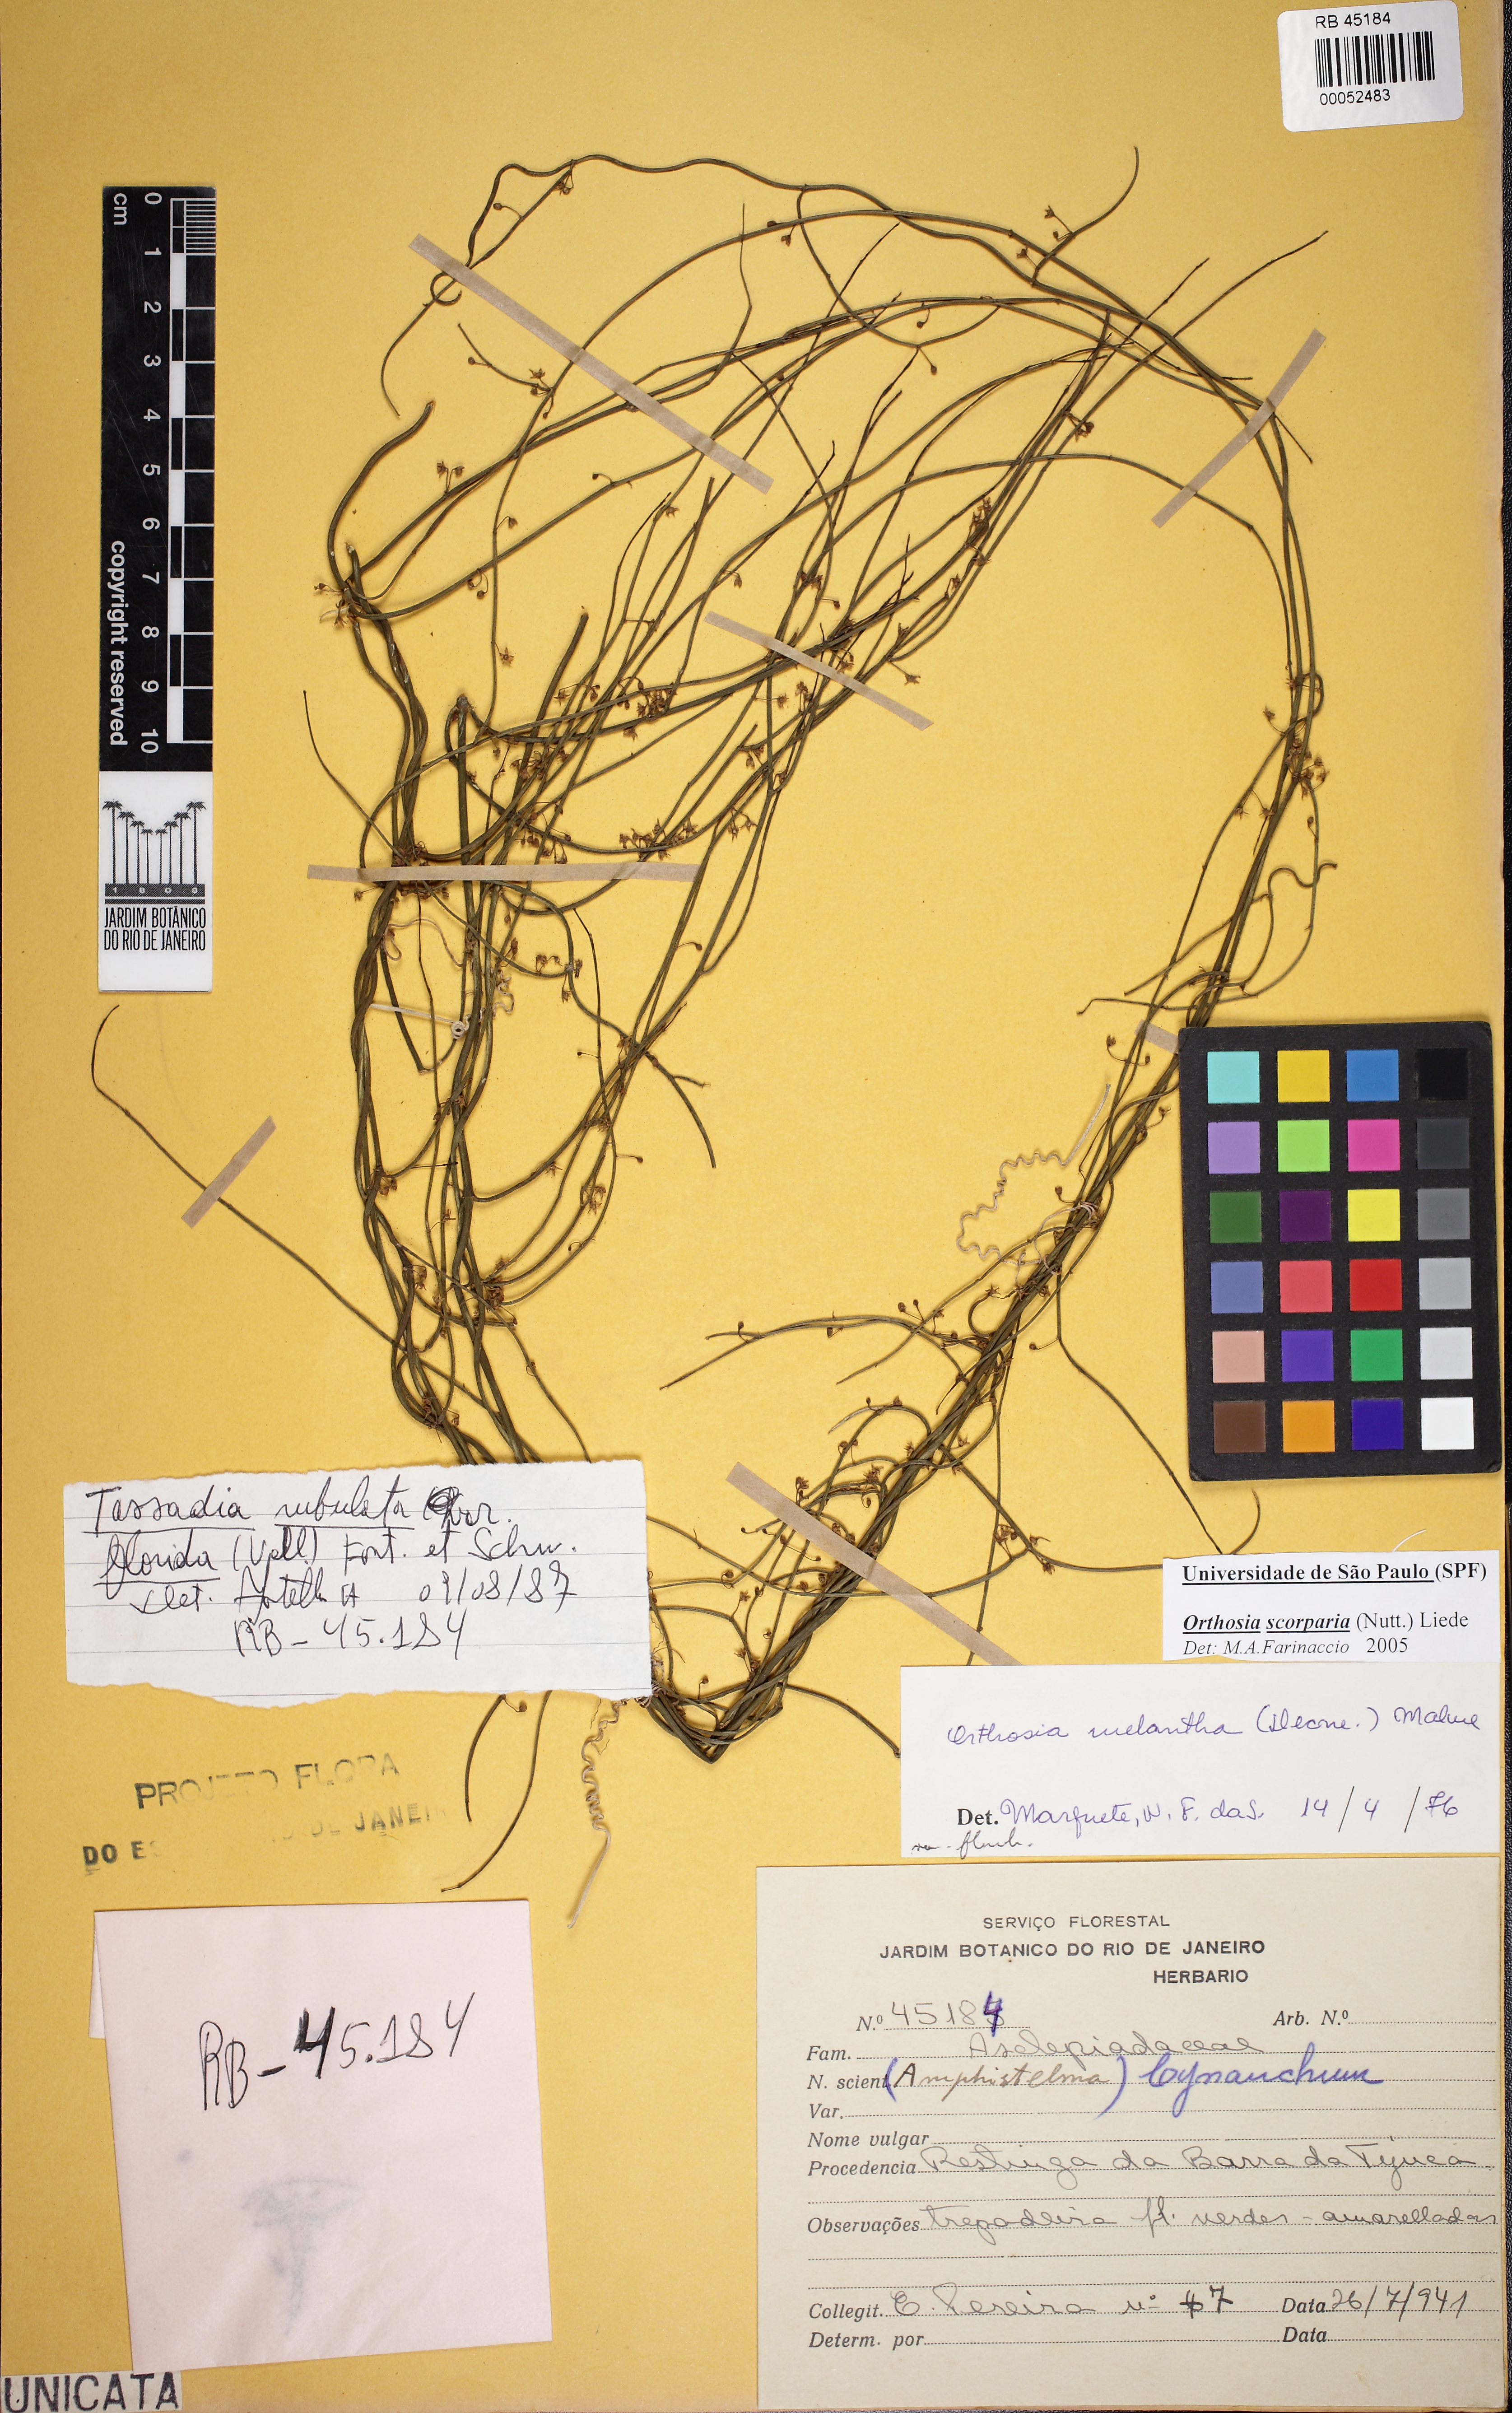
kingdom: Plantae
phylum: Tracheophyta
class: Magnoliopsida
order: Gentianales
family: Apocynaceae
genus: Orthosia
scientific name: Orthosia scoparia
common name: Leafless swallow-wort
